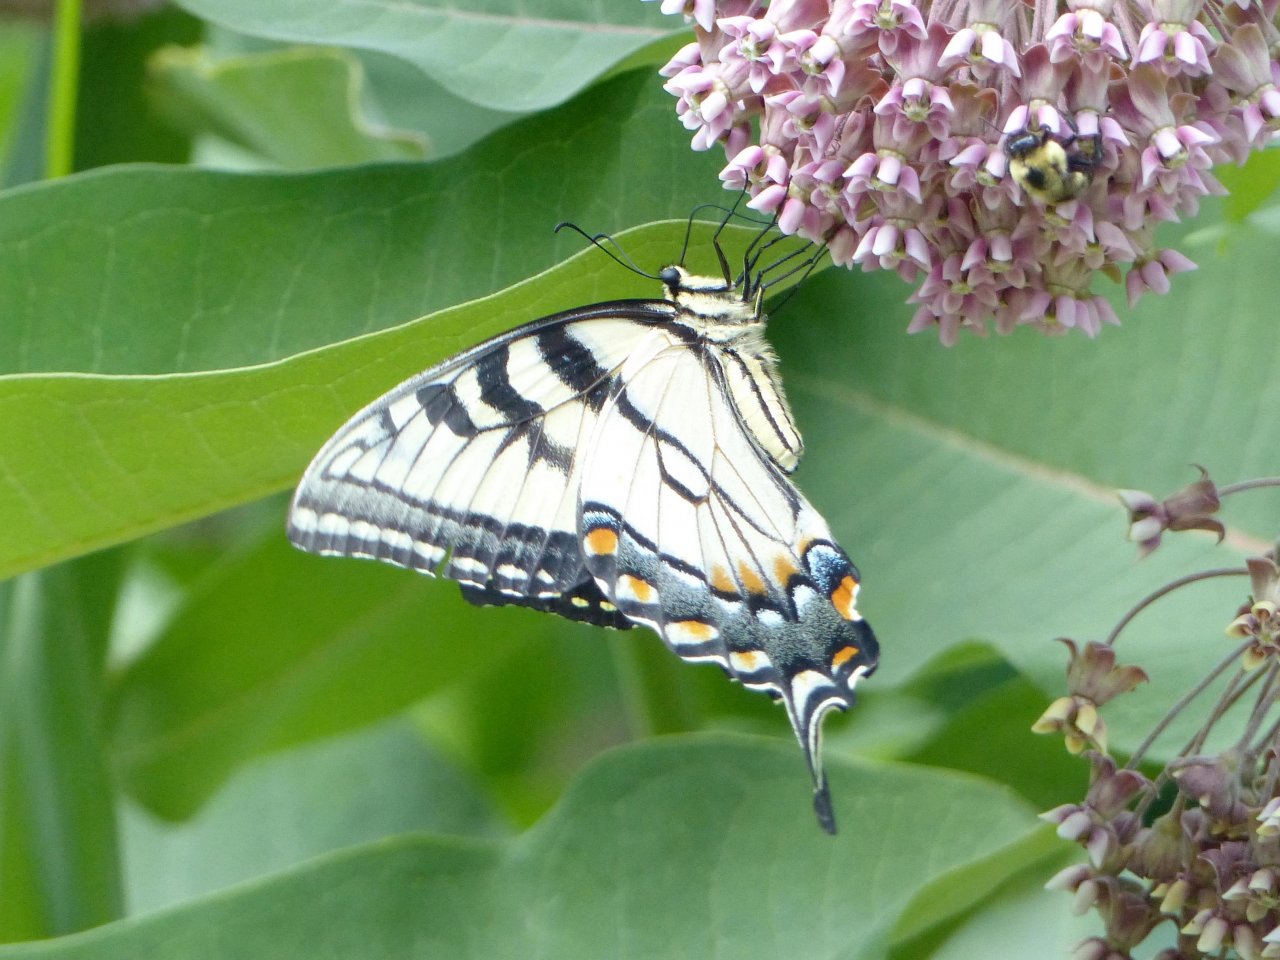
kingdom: Animalia
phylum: Arthropoda
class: Insecta
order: Lepidoptera
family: Papilionidae
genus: Pterourus
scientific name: Pterourus glaucus
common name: Eastern Tiger Swallowtail
